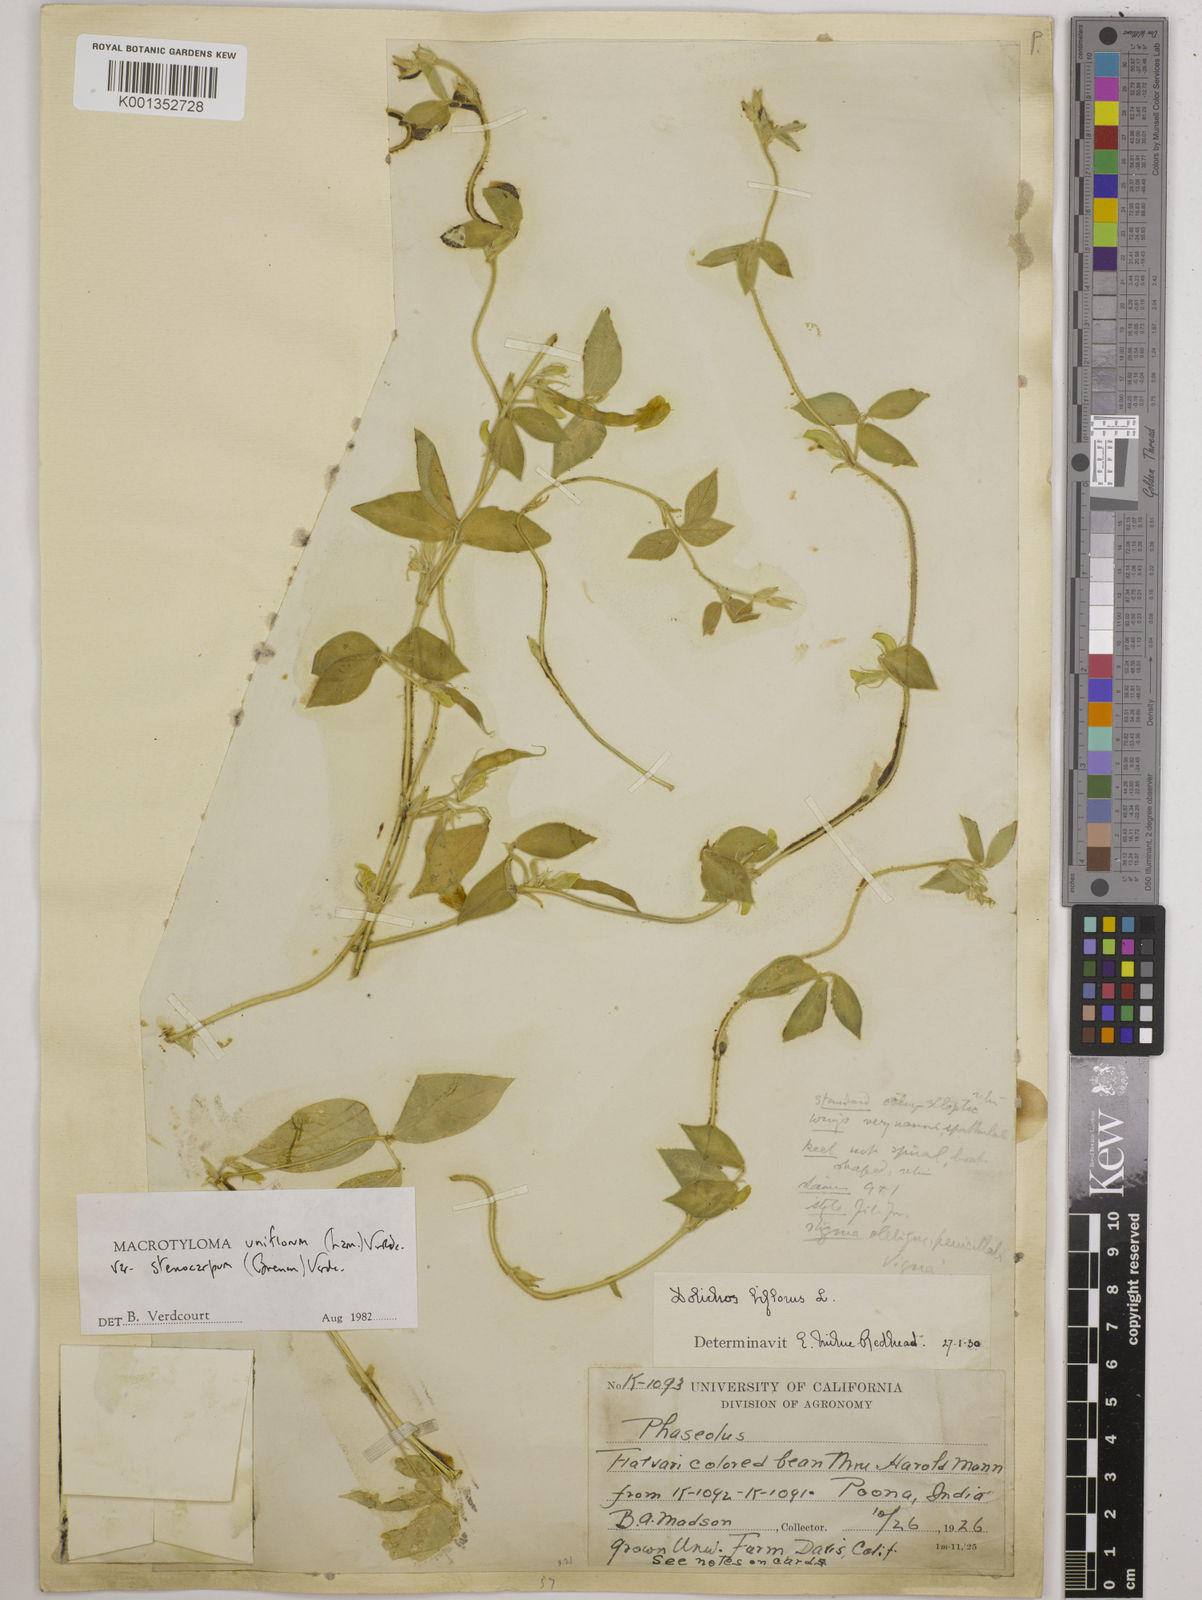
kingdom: Plantae
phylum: Tracheophyta
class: Magnoliopsida
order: Fabales
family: Fabaceae
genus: Macrotyloma
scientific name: Macrotyloma
